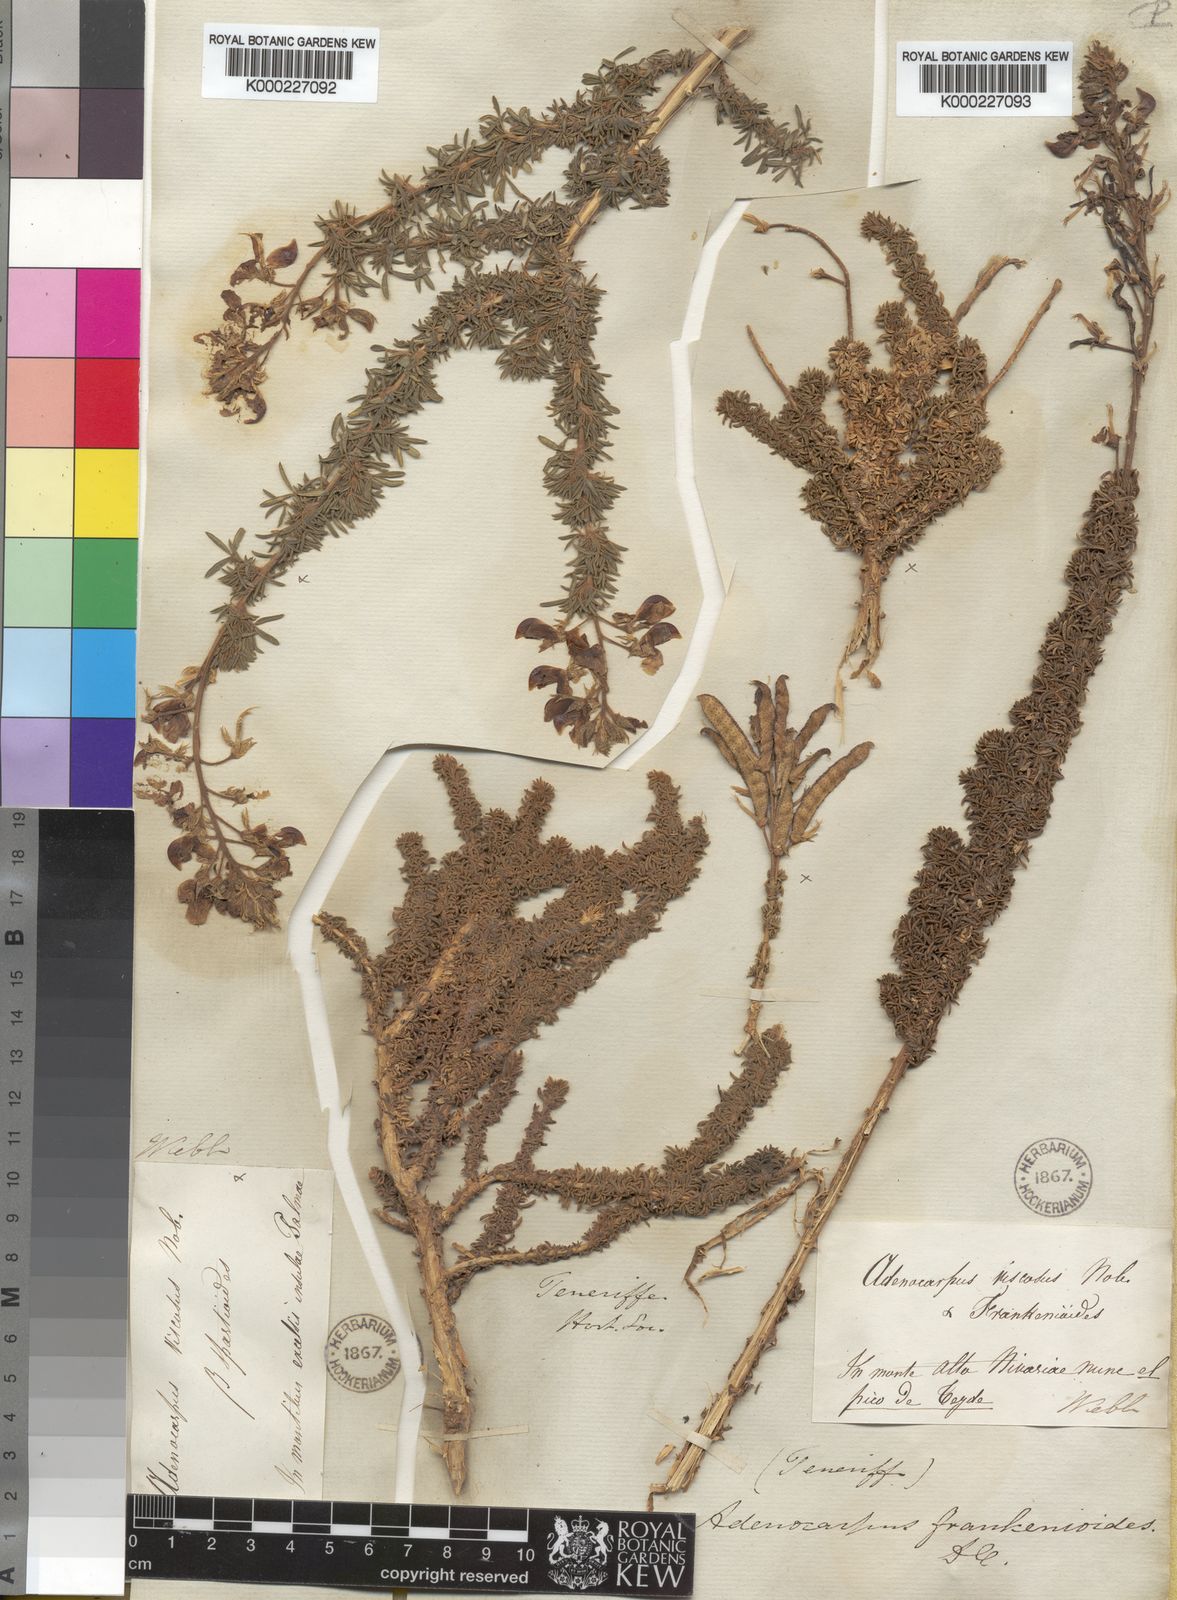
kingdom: Plantae
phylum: Tracheophyta
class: Magnoliopsida
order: Fabales
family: Fabaceae
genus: Adenocarpus
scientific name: Adenocarpus viscosus
